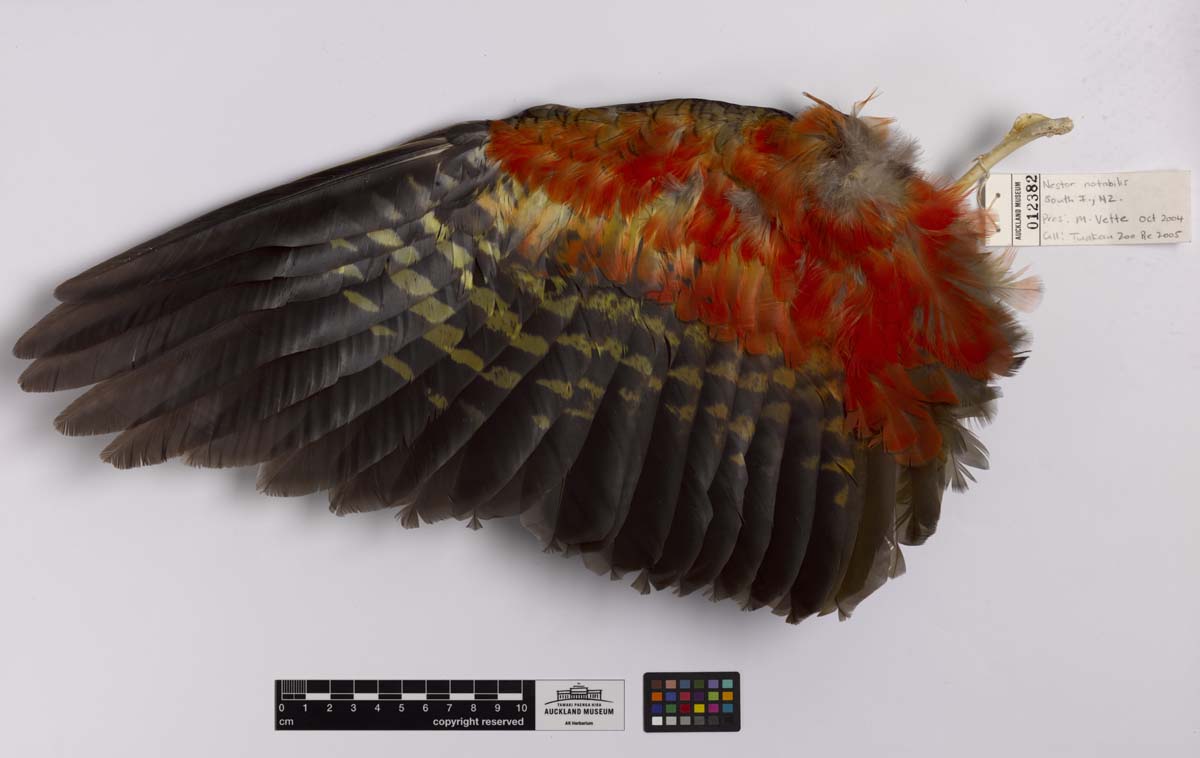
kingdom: Animalia
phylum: Chordata
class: Aves
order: Psittaciformes
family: Psittacidae
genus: Nestor
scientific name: Nestor notabilis
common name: Kea
